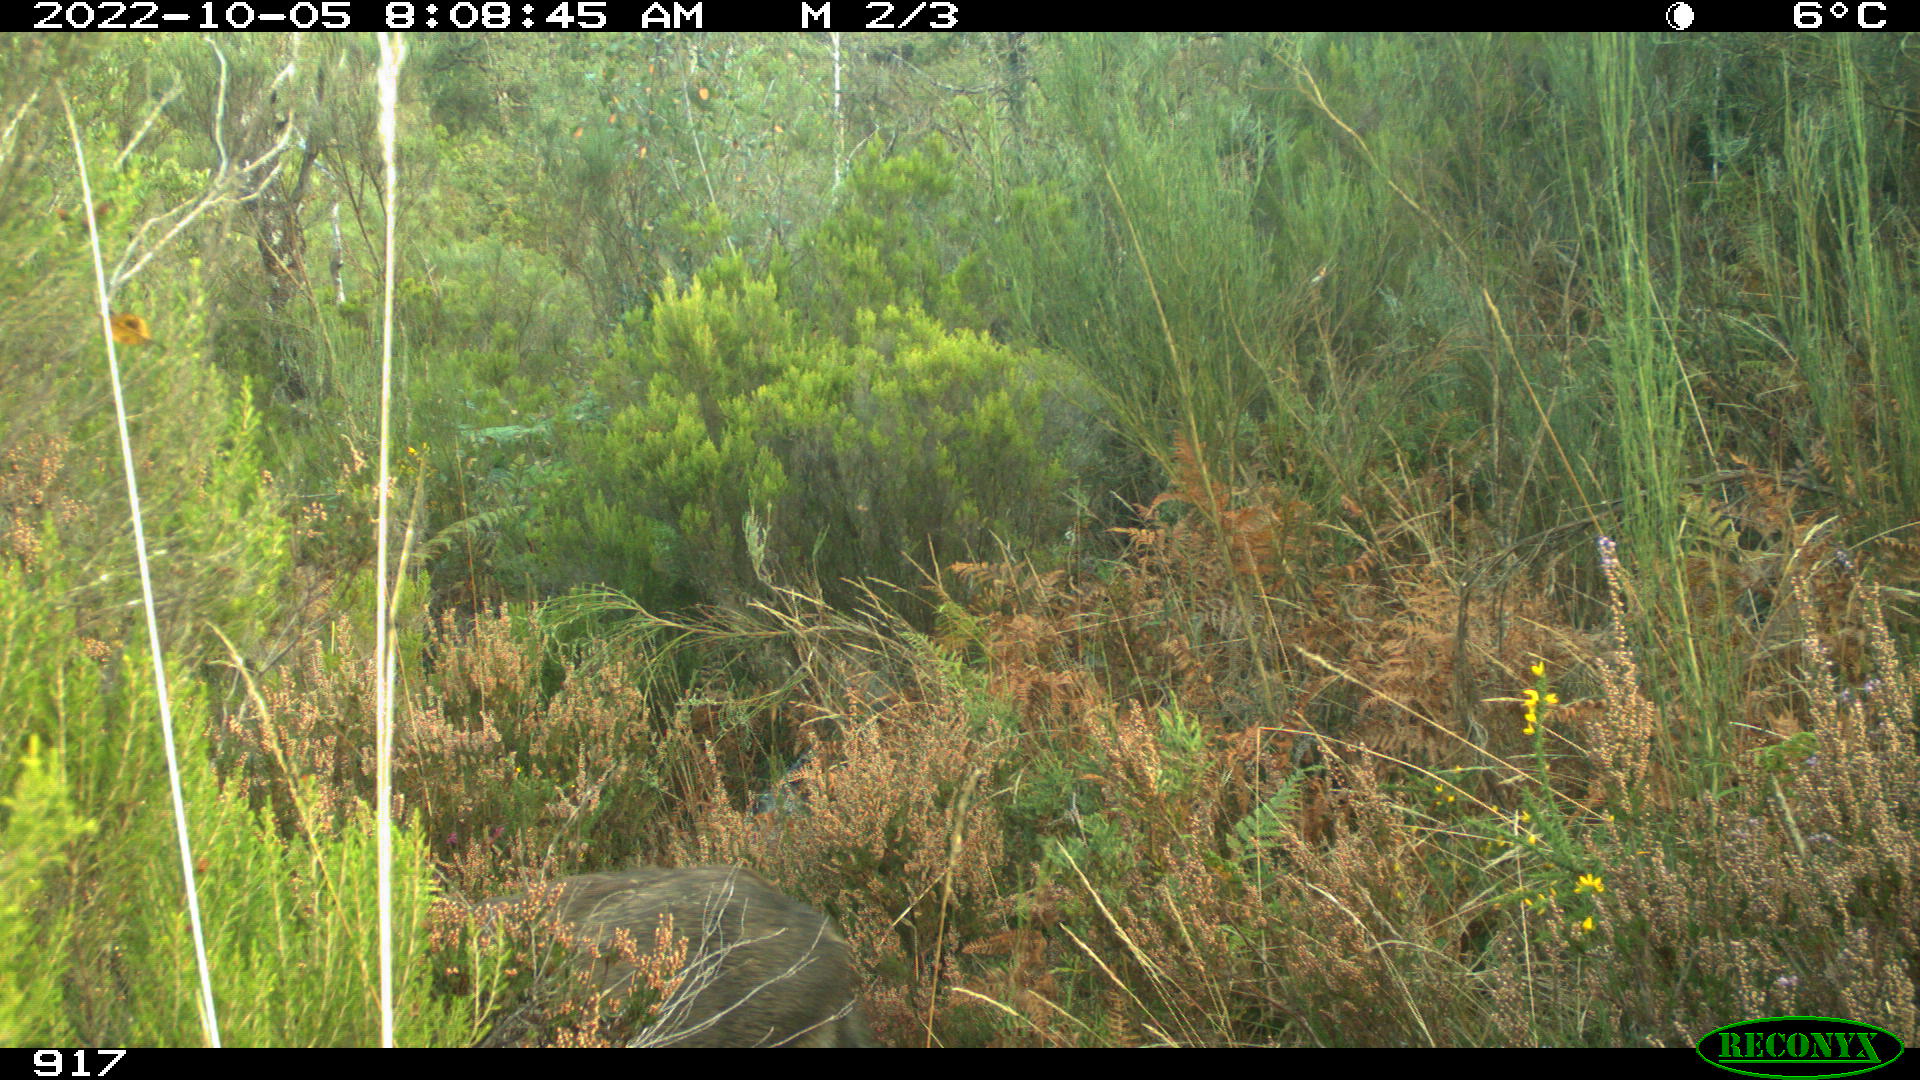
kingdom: Animalia
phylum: Chordata
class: Mammalia
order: Artiodactyla
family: Suidae
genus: Sus
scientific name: Sus scrofa
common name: Wild boar
